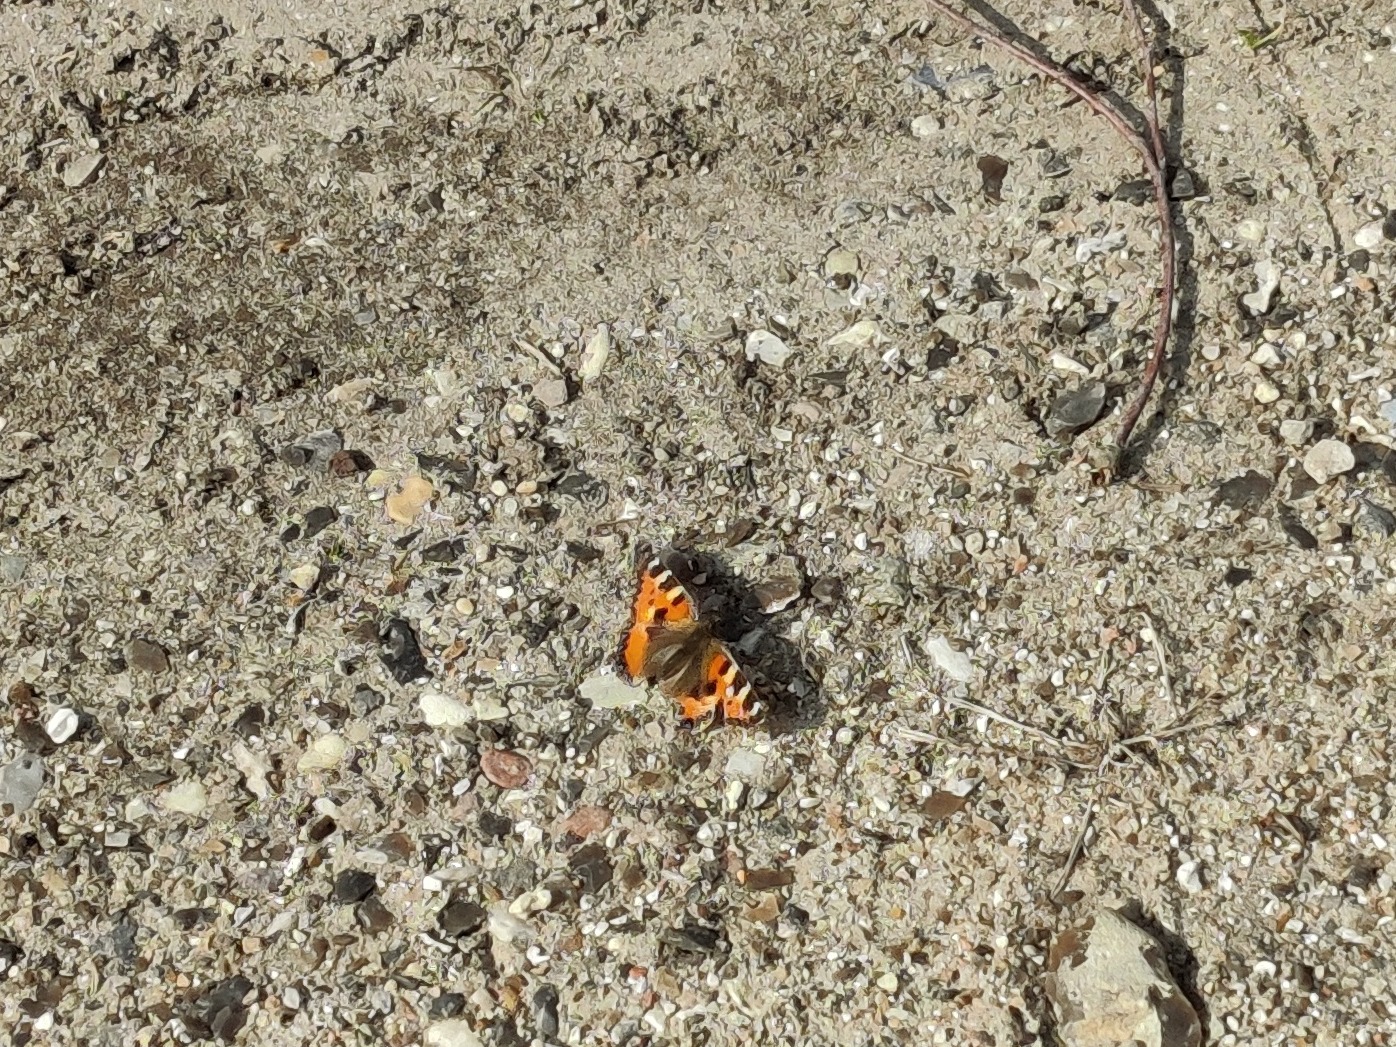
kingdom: Animalia
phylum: Arthropoda
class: Insecta
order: Lepidoptera
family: Nymphalidae
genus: Aglais
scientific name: Aglais urticae
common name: Nældens takvinge
